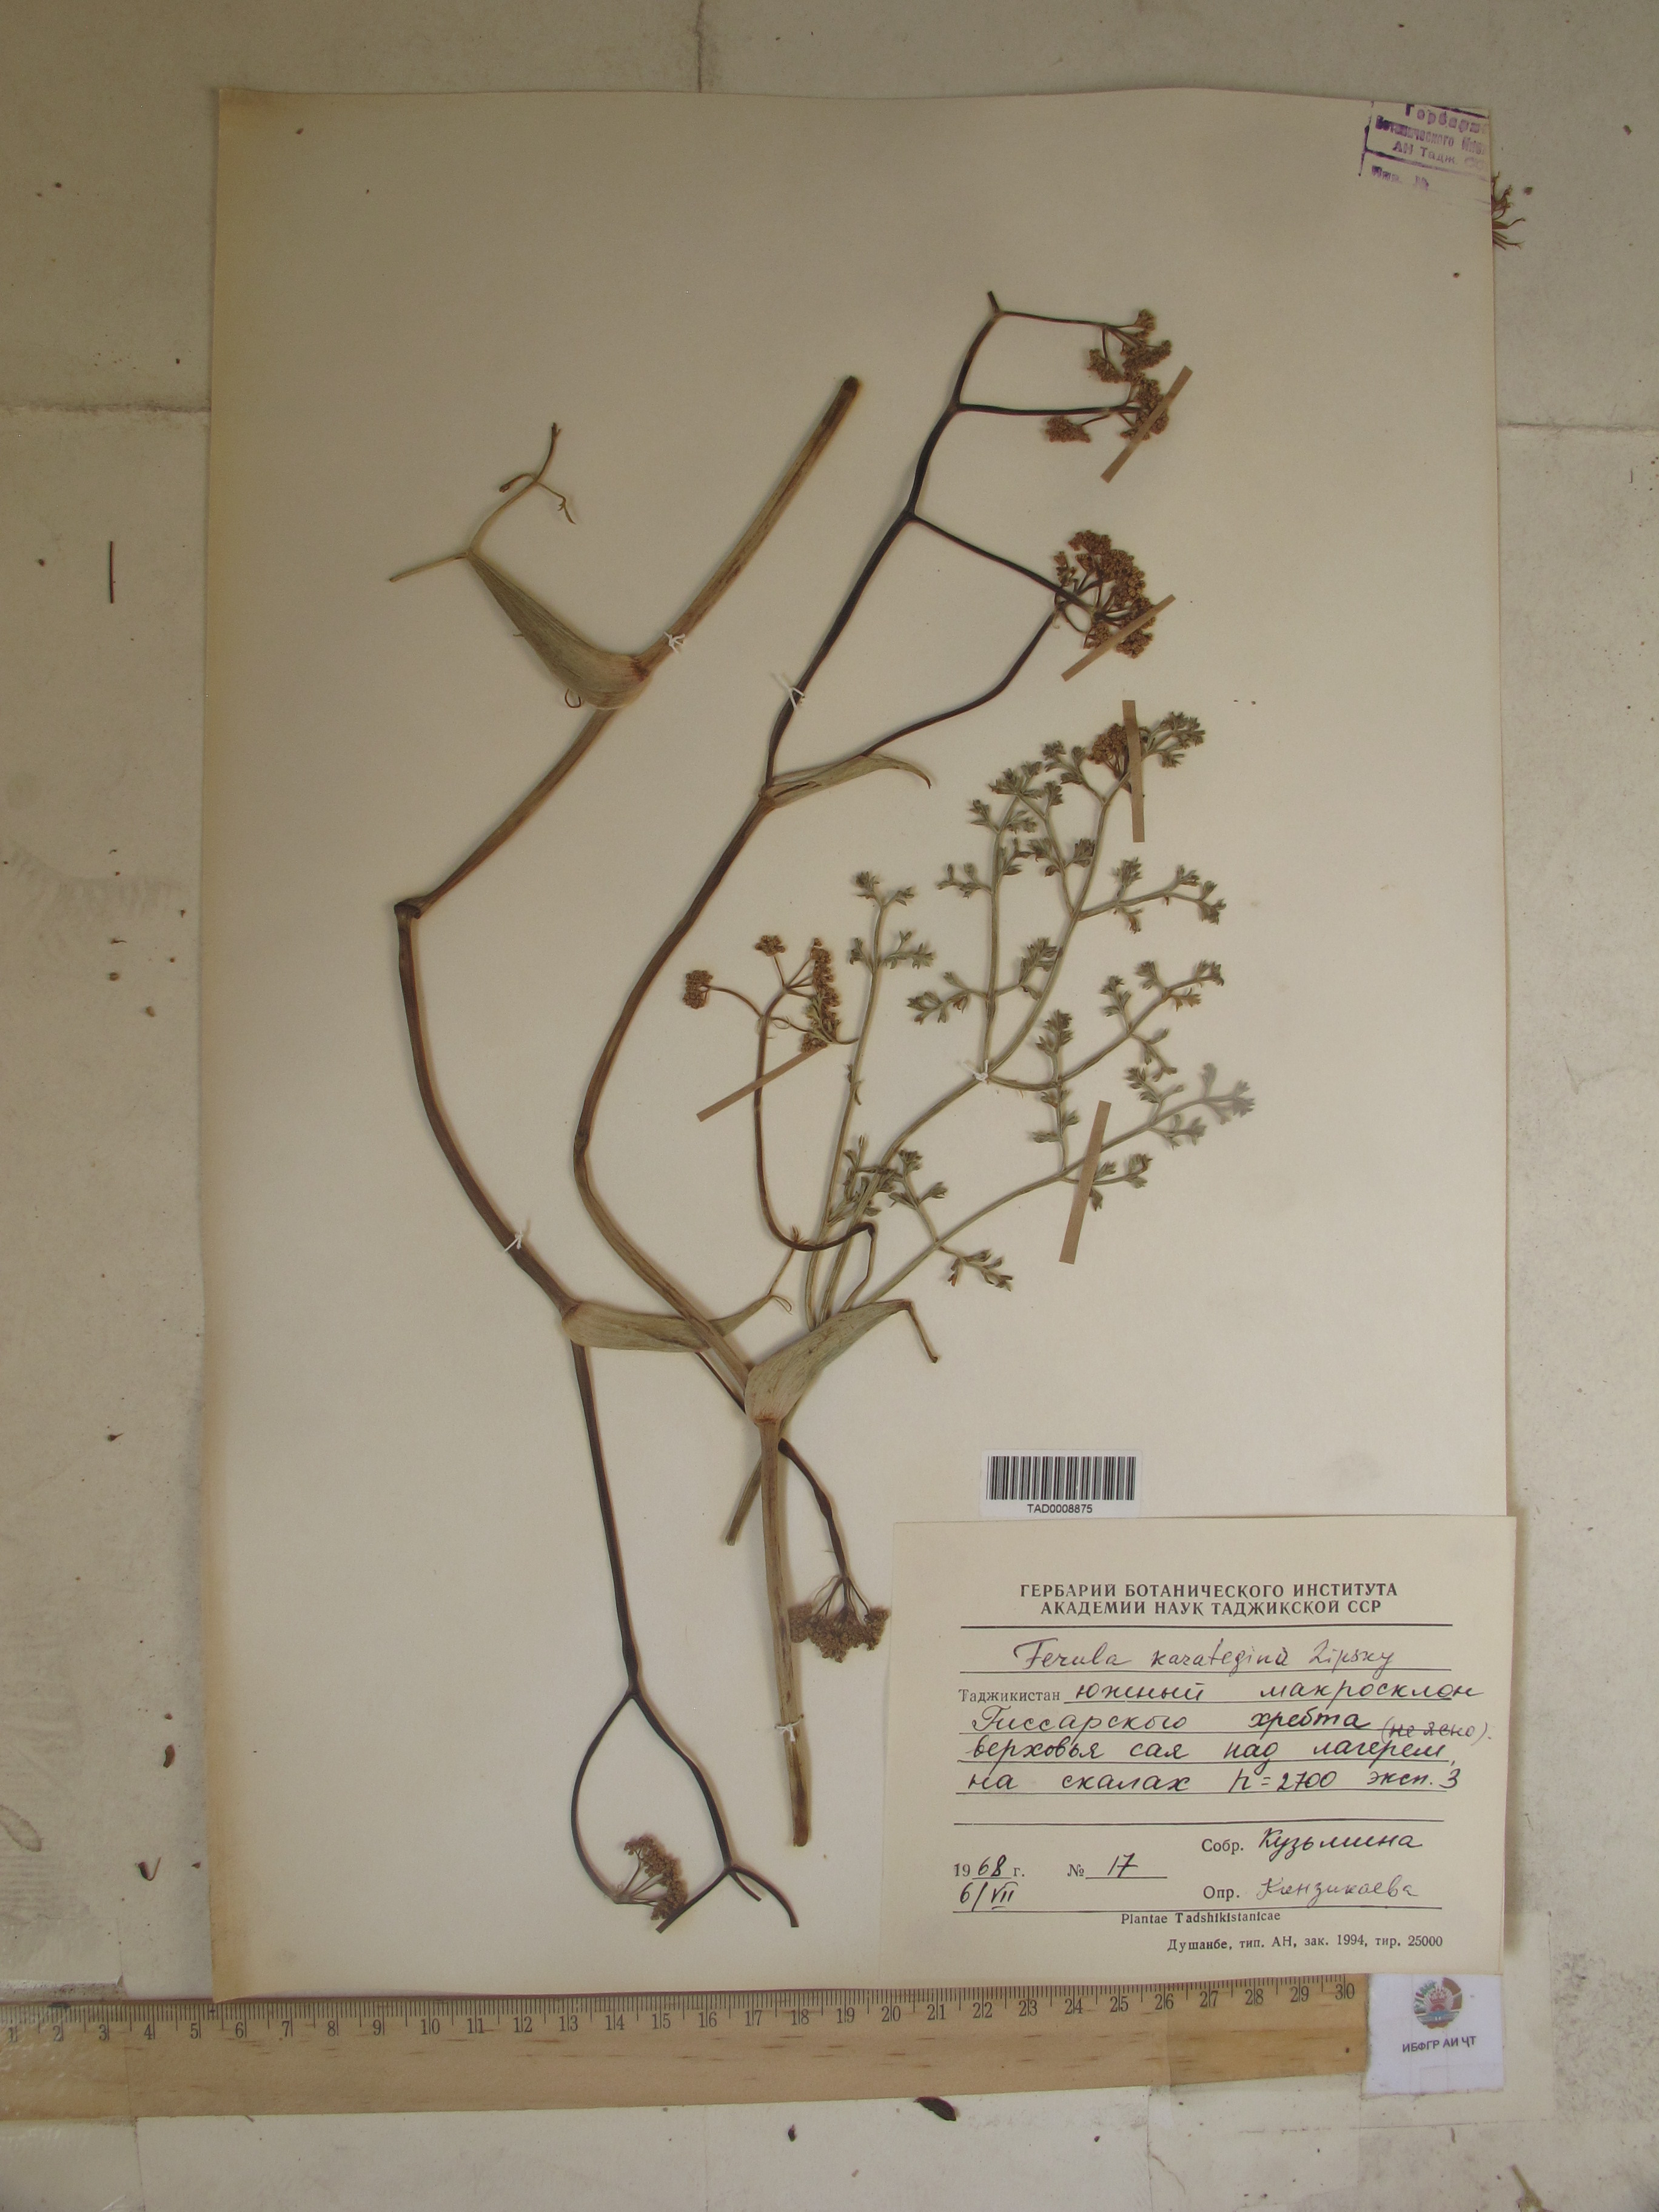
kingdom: Plantae
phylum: Tracheophyta
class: Magnoliopsida
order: Apiales
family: Apiaceae
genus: Ferula
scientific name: Ferula karategina
